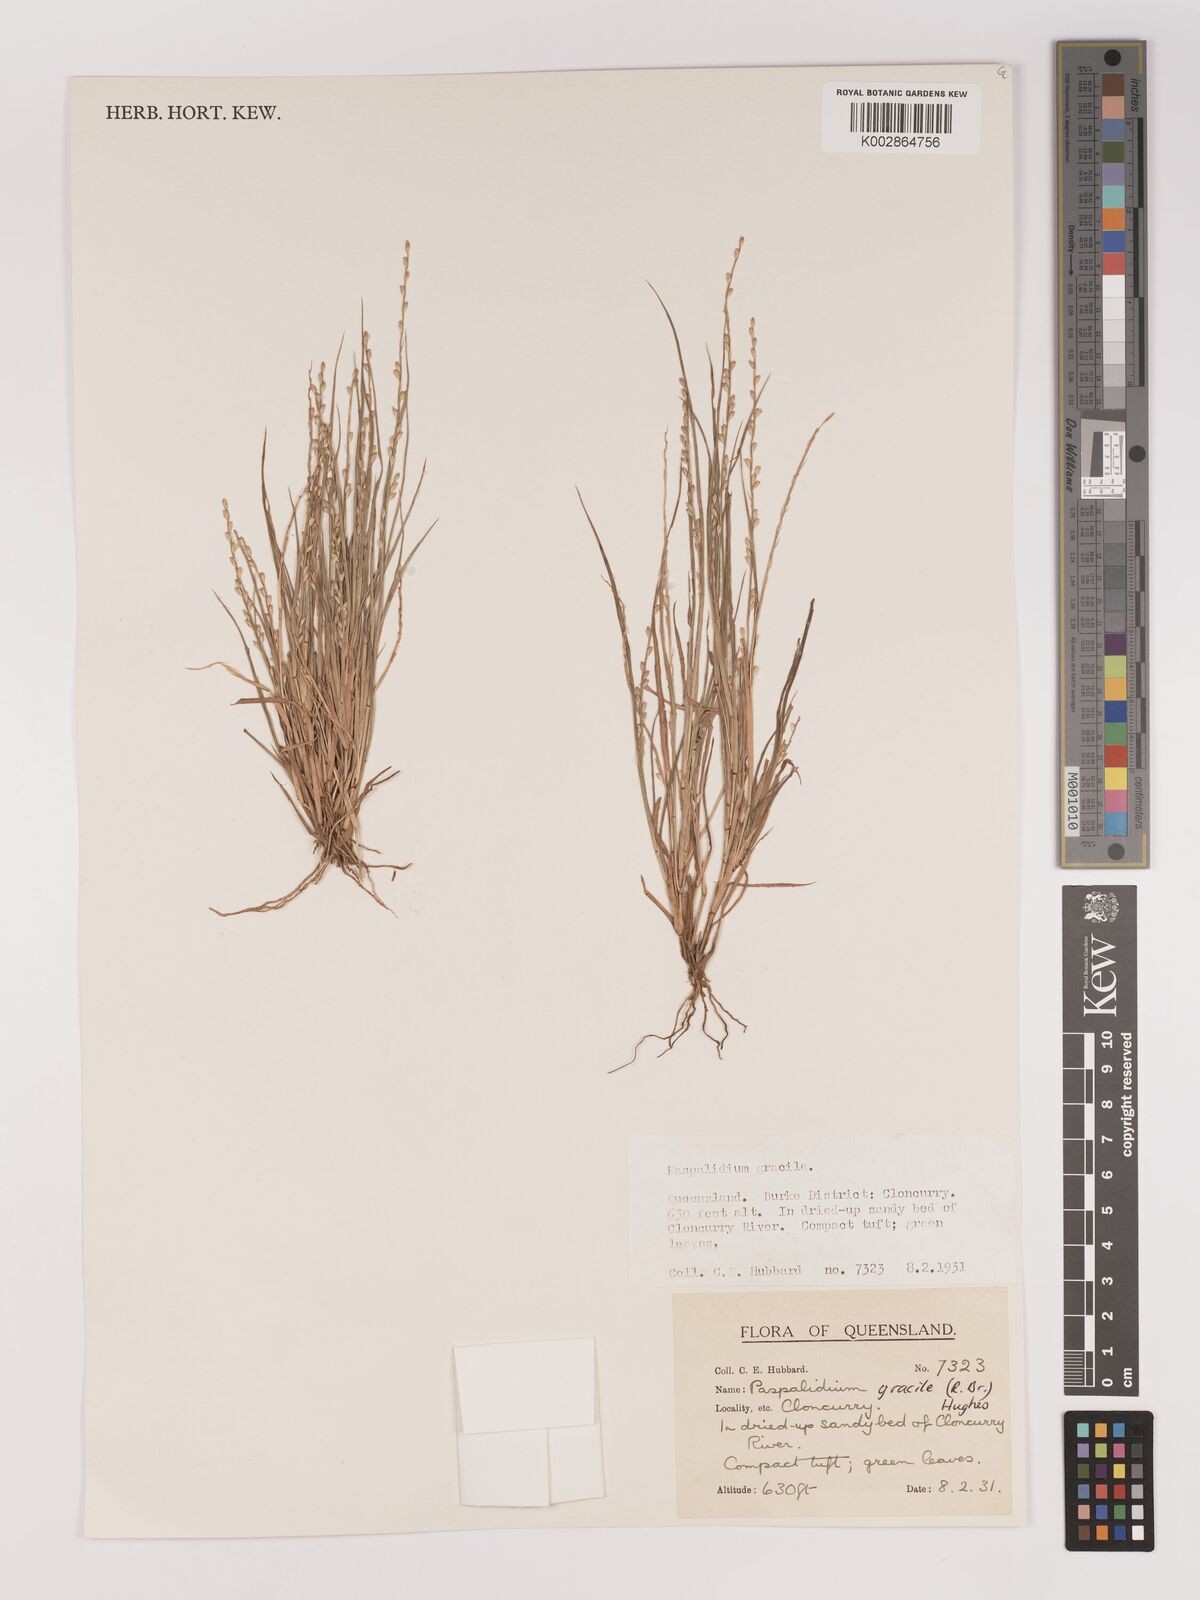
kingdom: Plantae
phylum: Tracheophyta
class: Liliopsida
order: Poales
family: Poaceae
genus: Setaria
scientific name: Setaria brownii
